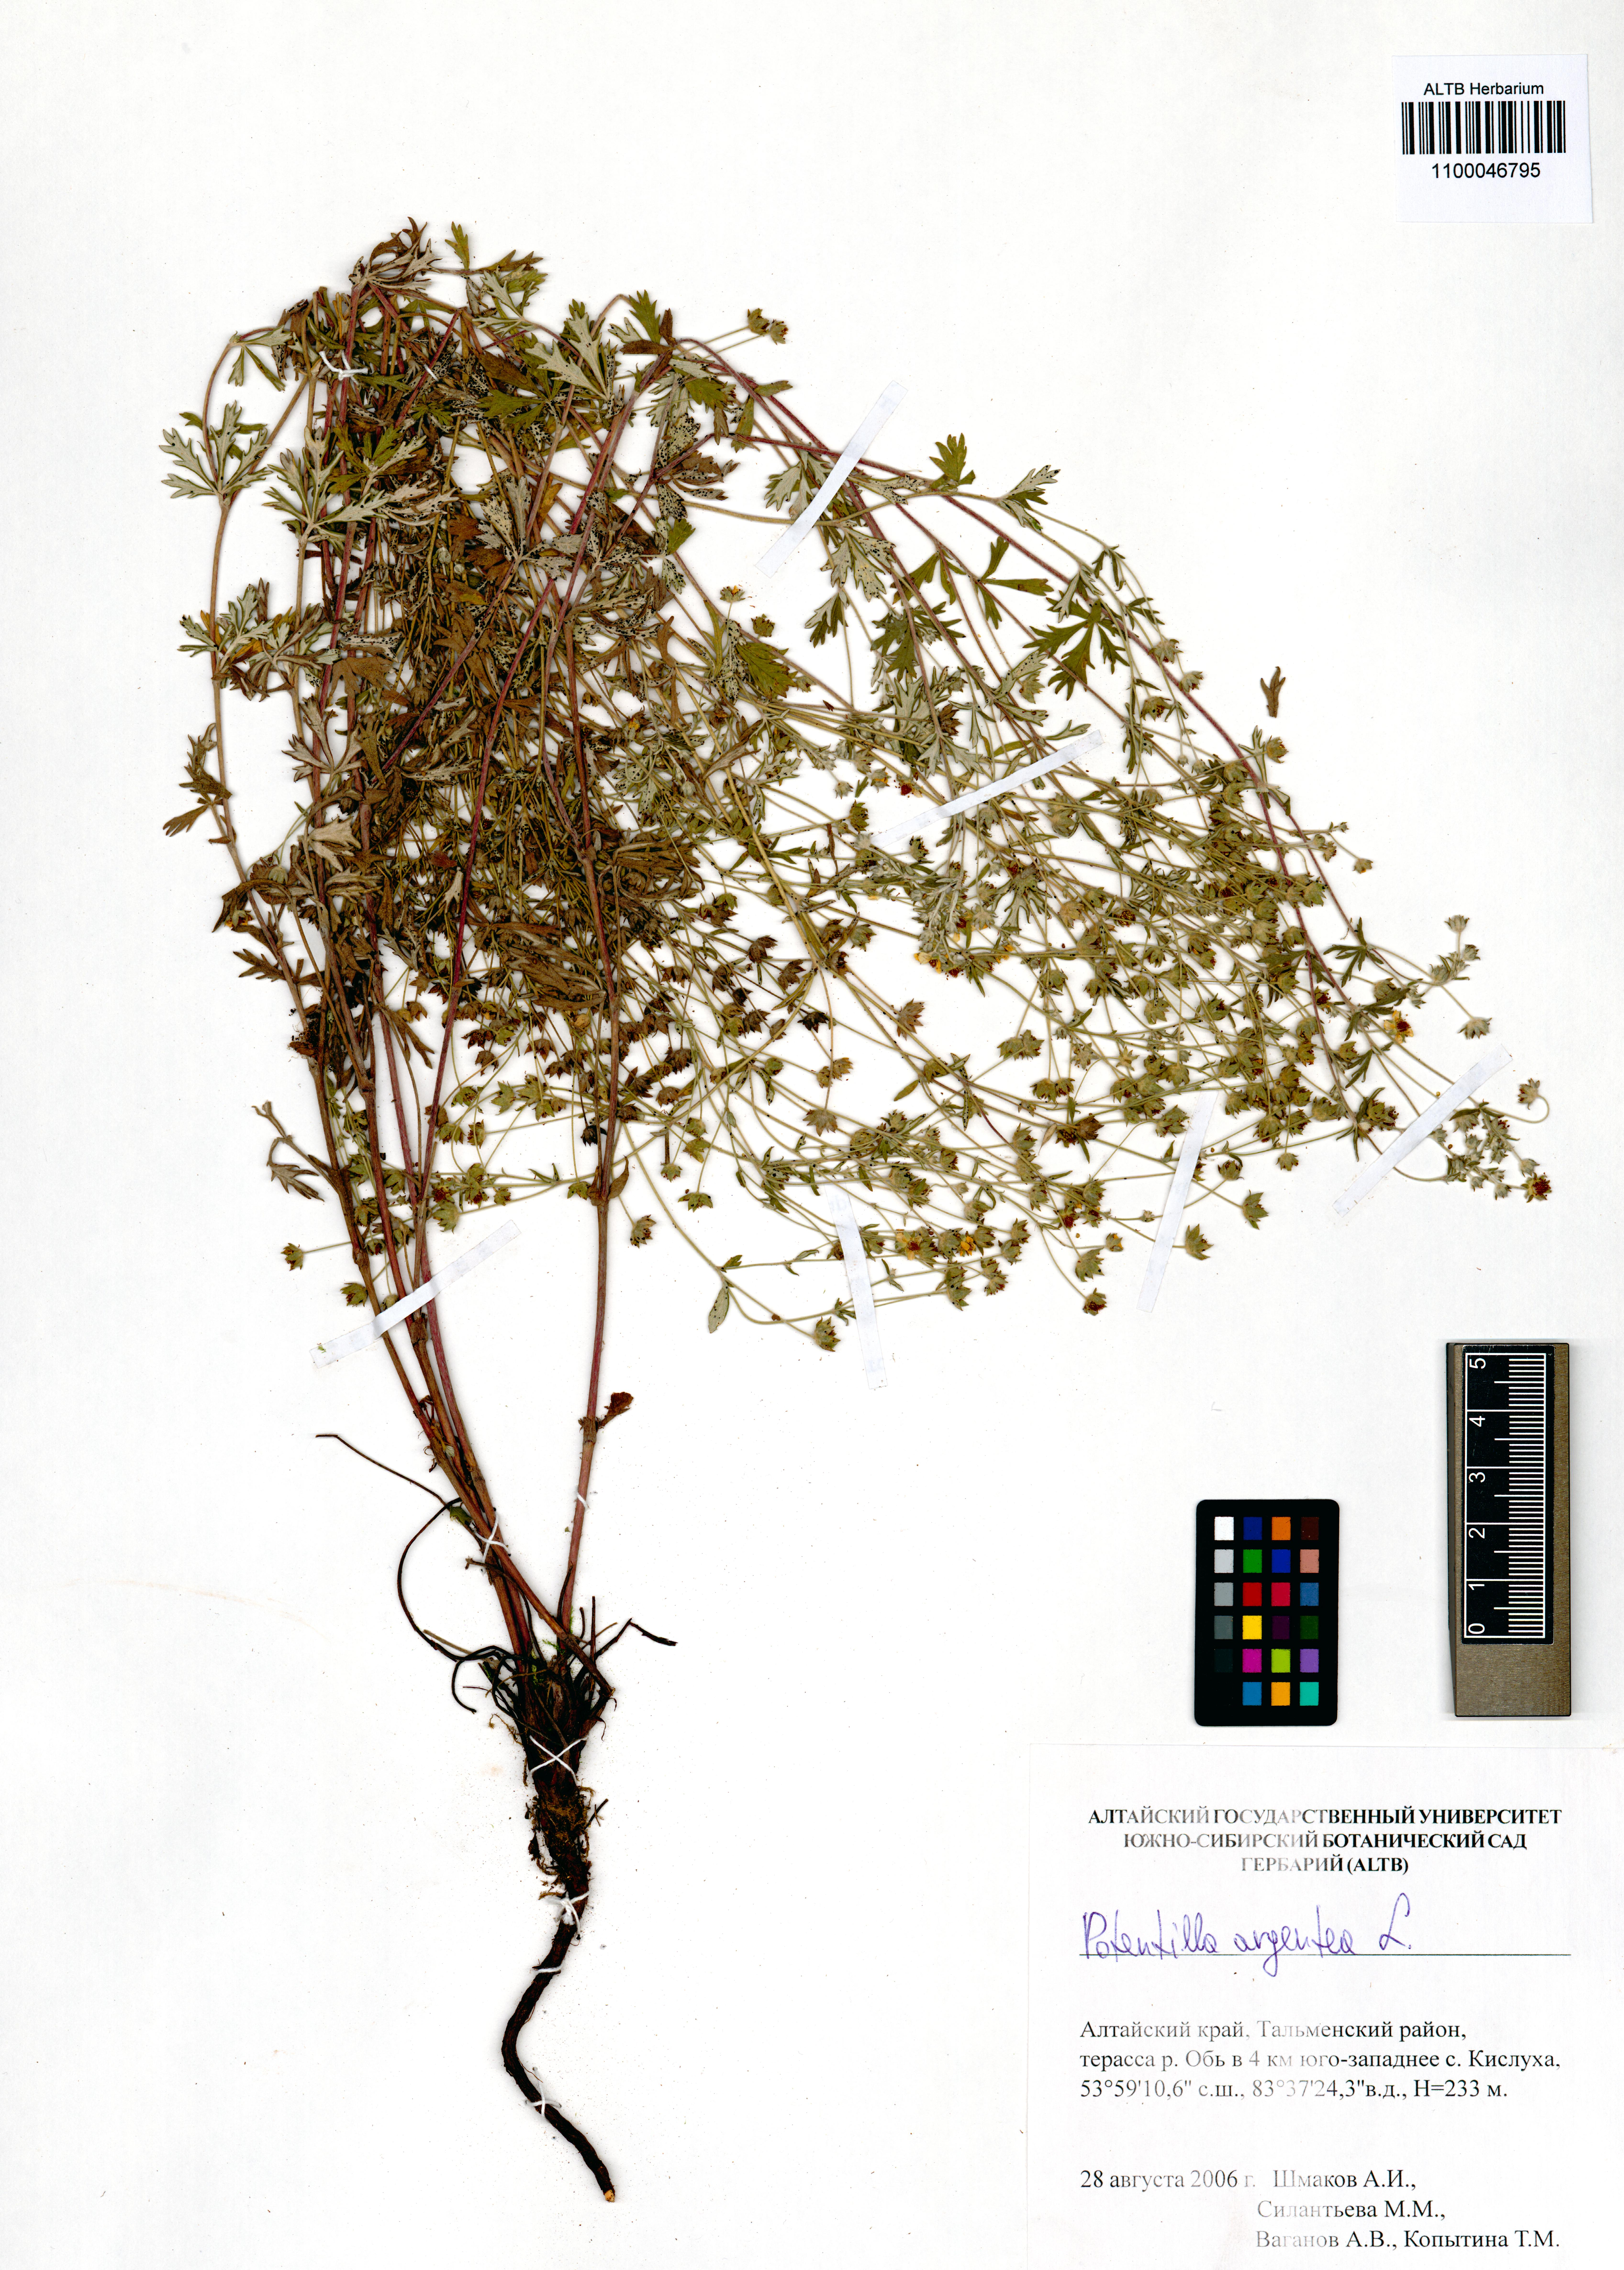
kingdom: Plantae
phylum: Tracheophyta
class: Magnoliopsida
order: Rosales
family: Rosaceae
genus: Potentilla
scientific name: Potentilla argentea
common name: Hoary cinquefoil
